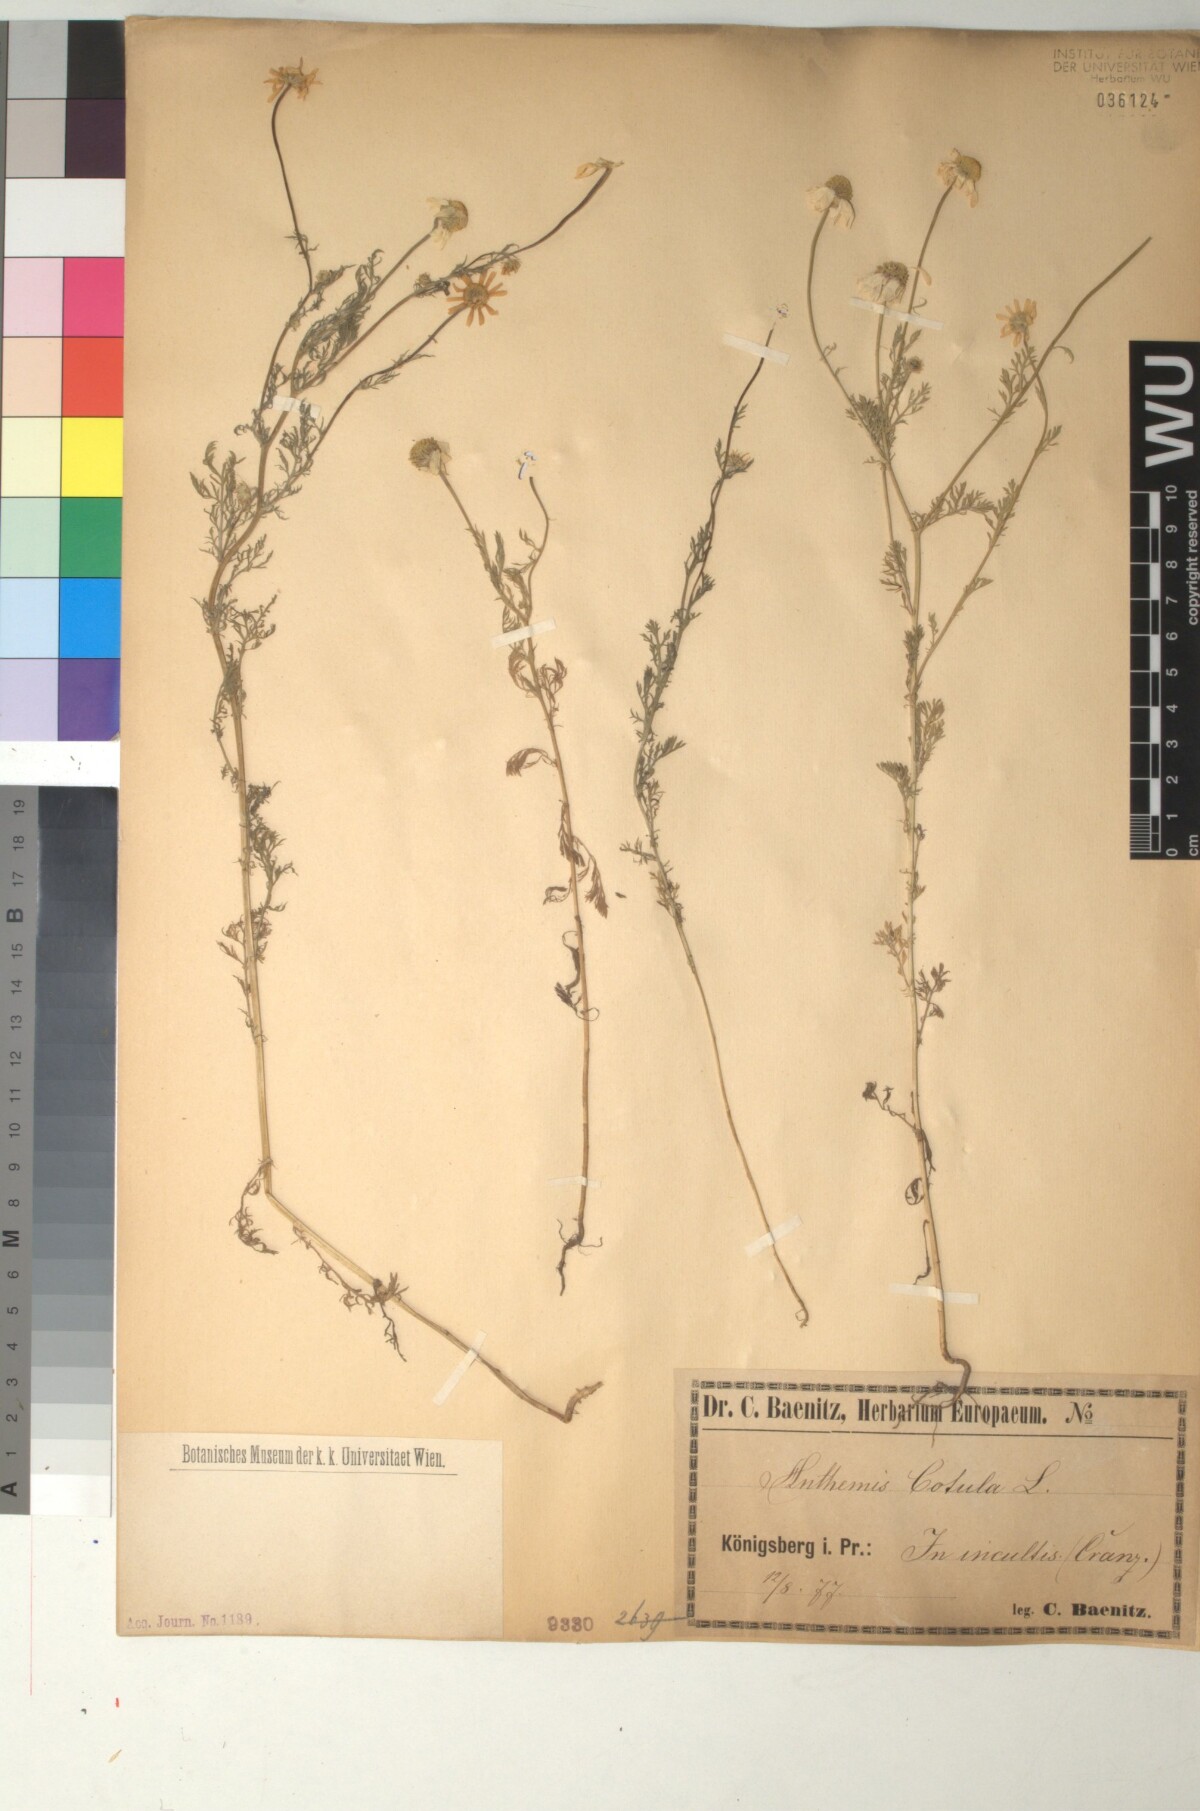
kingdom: Plantae
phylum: Tracheophyta
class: Magnoliopsida
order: Asterales
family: Asteraceae
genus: Anthemis
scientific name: Anthemis cotula
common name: Stinking chamomile
